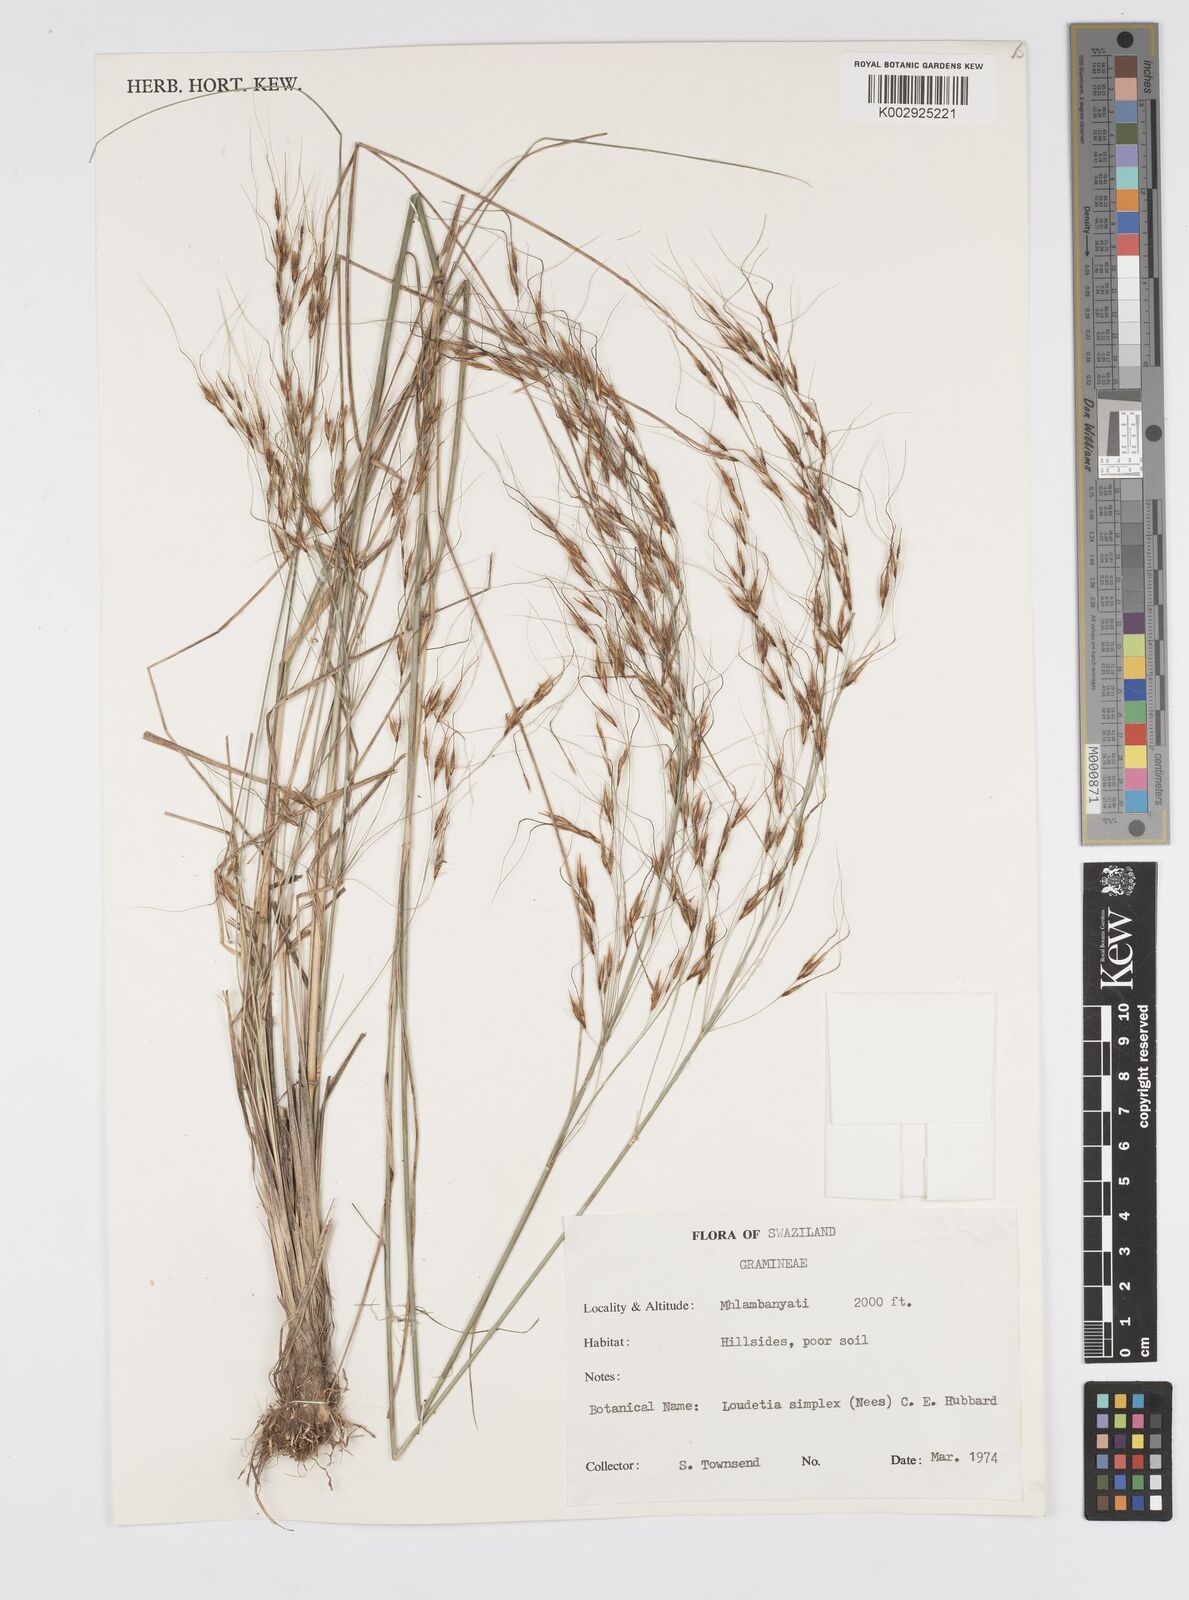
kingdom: Plantae
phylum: Tracheophyta
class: Liliopsida
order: Poales
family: Poaceae
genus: Loudetia
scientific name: Loudetia simplex
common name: Common russet grass
